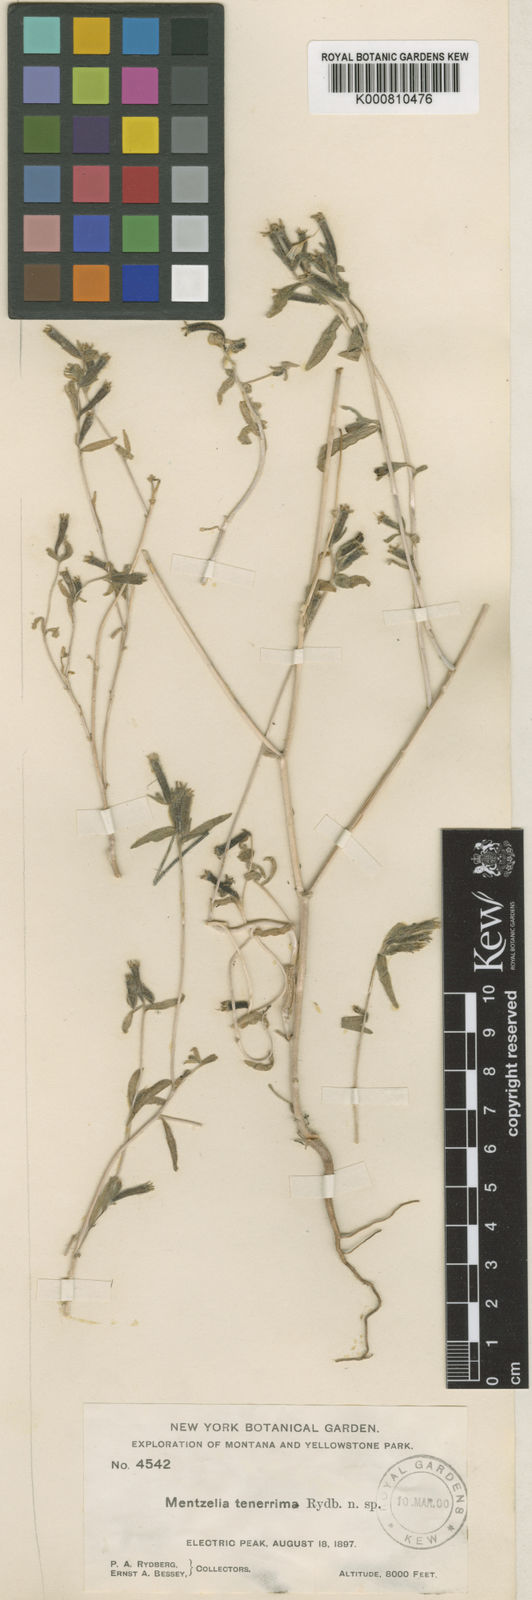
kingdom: Plantae
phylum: Tracheophyta
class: Magnoliopsida
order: Cornales
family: Loasaceae
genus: Mentzelia
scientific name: Mentzelia albicaulis
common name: White-stem blazingstar
